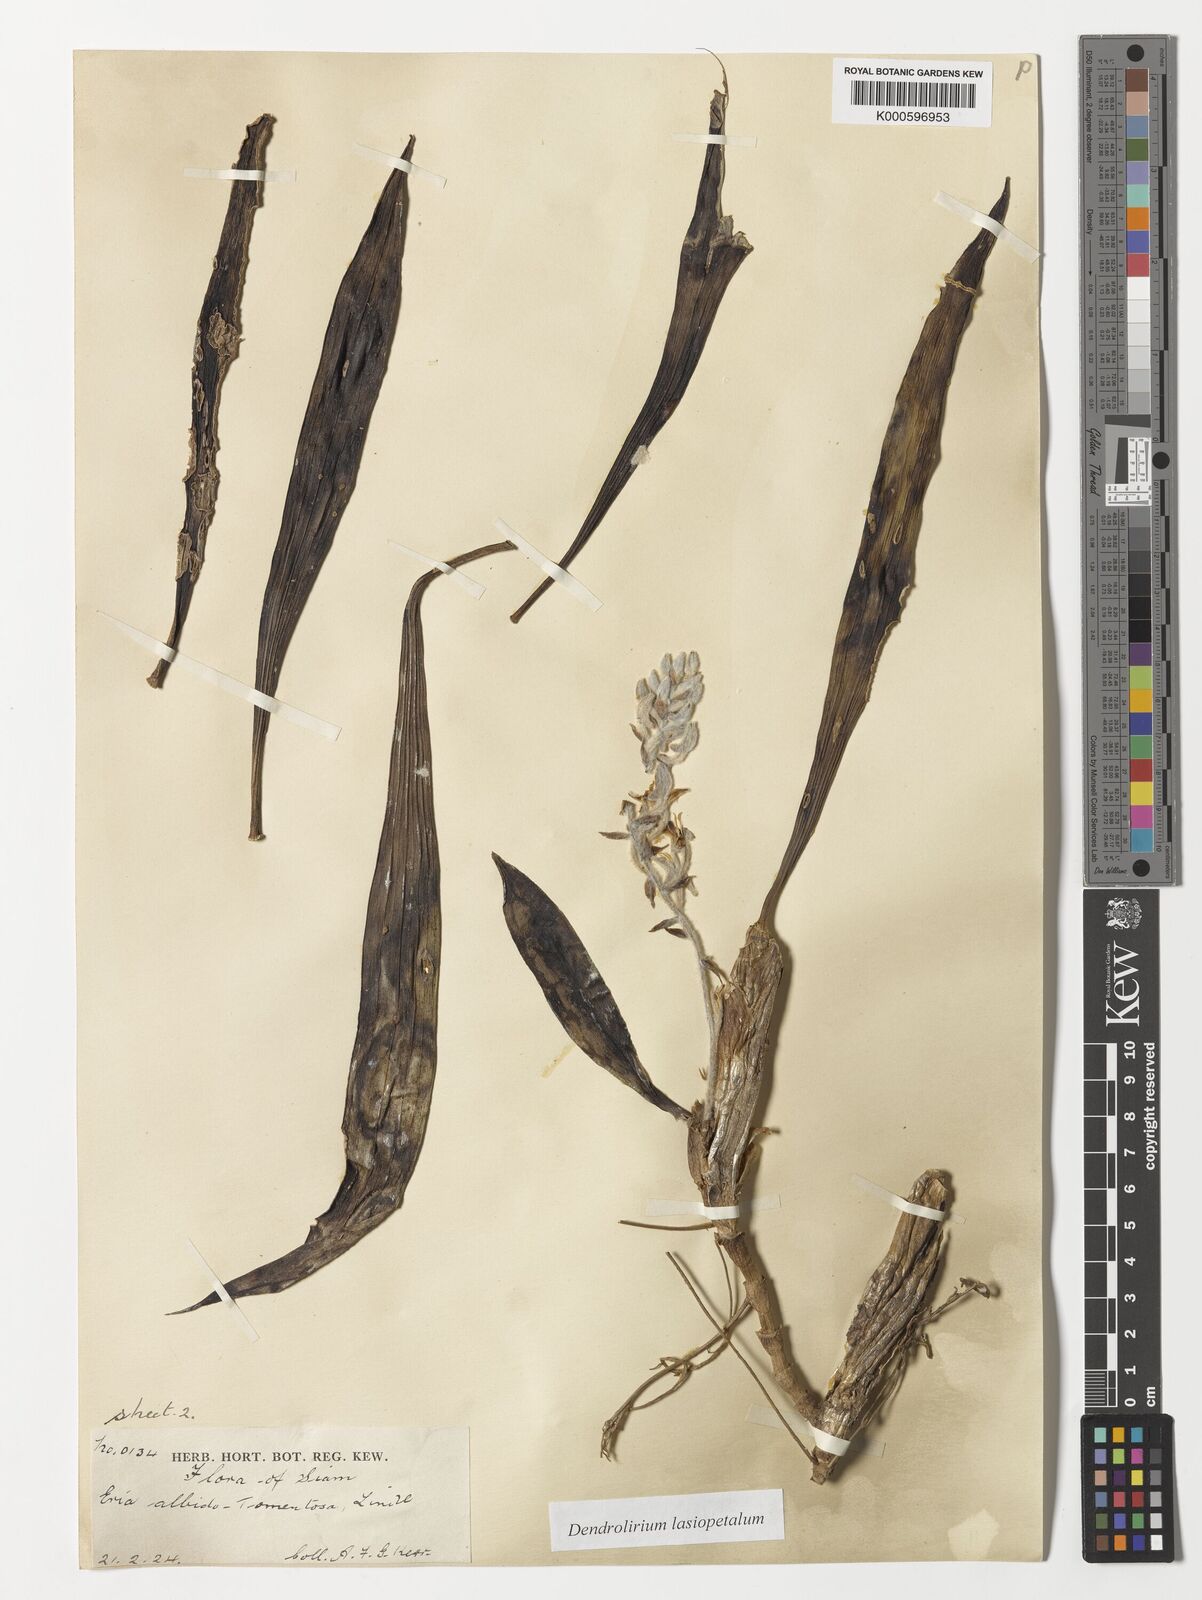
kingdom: Plantae
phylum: Tracheophyta
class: Liliopsida
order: Asparagales
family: Orchidaceae
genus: Dendrolirium
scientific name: Dendrolirium lasiopetalum
